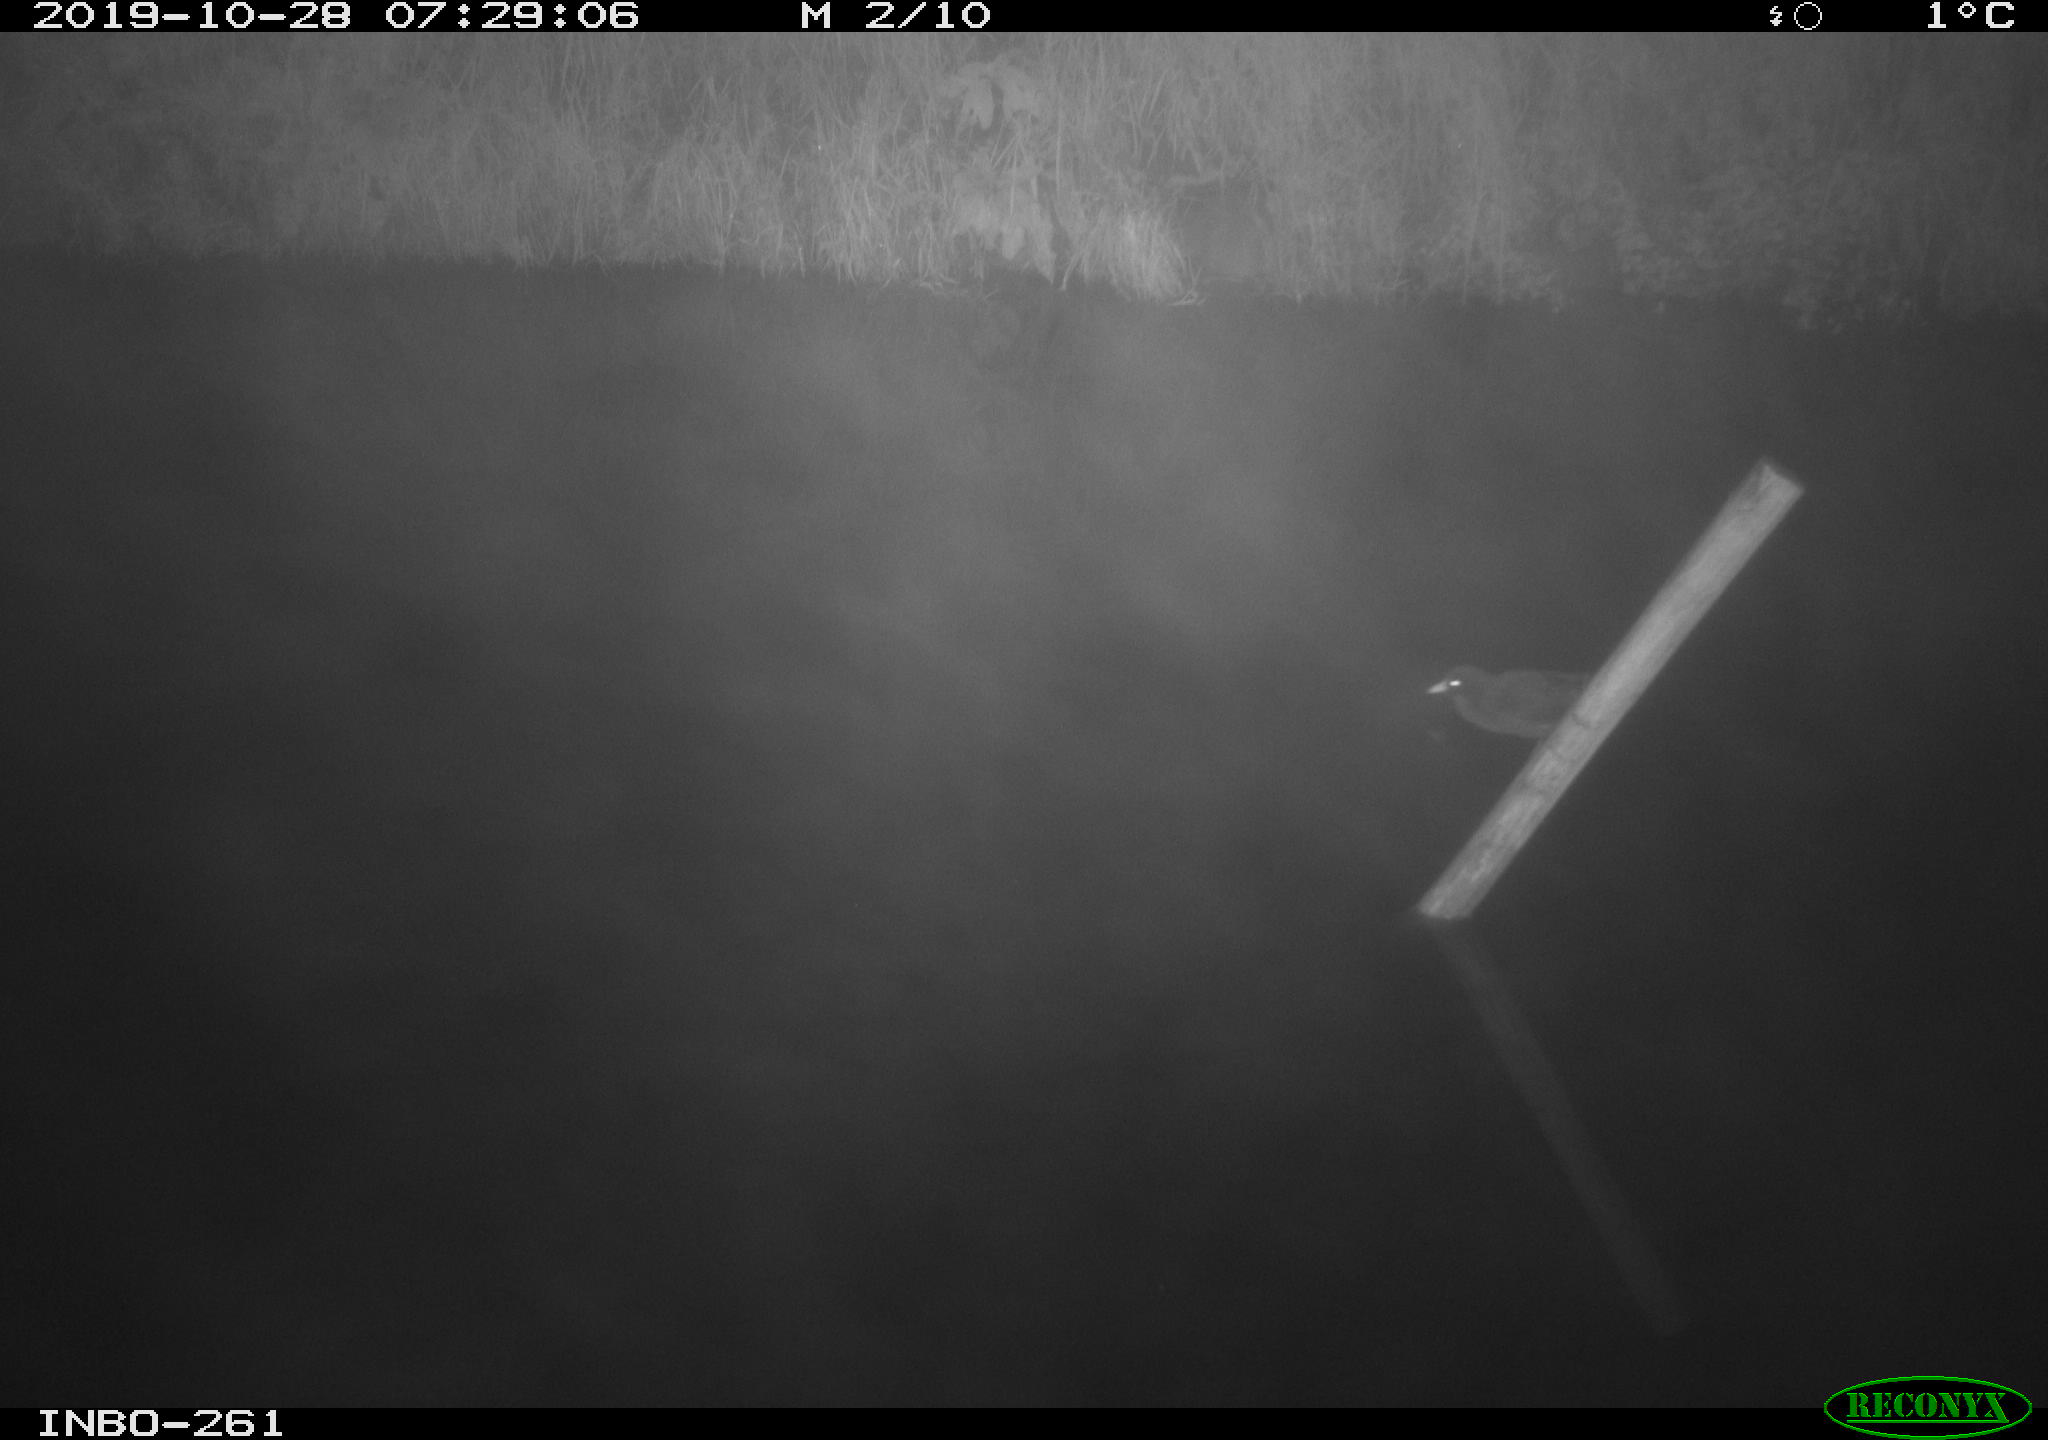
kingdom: Animalia
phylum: Chordata
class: Aves
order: Gruiformes
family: Rallidae
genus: Gallinula
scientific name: Gallinula chloropus
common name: Common moorhen
